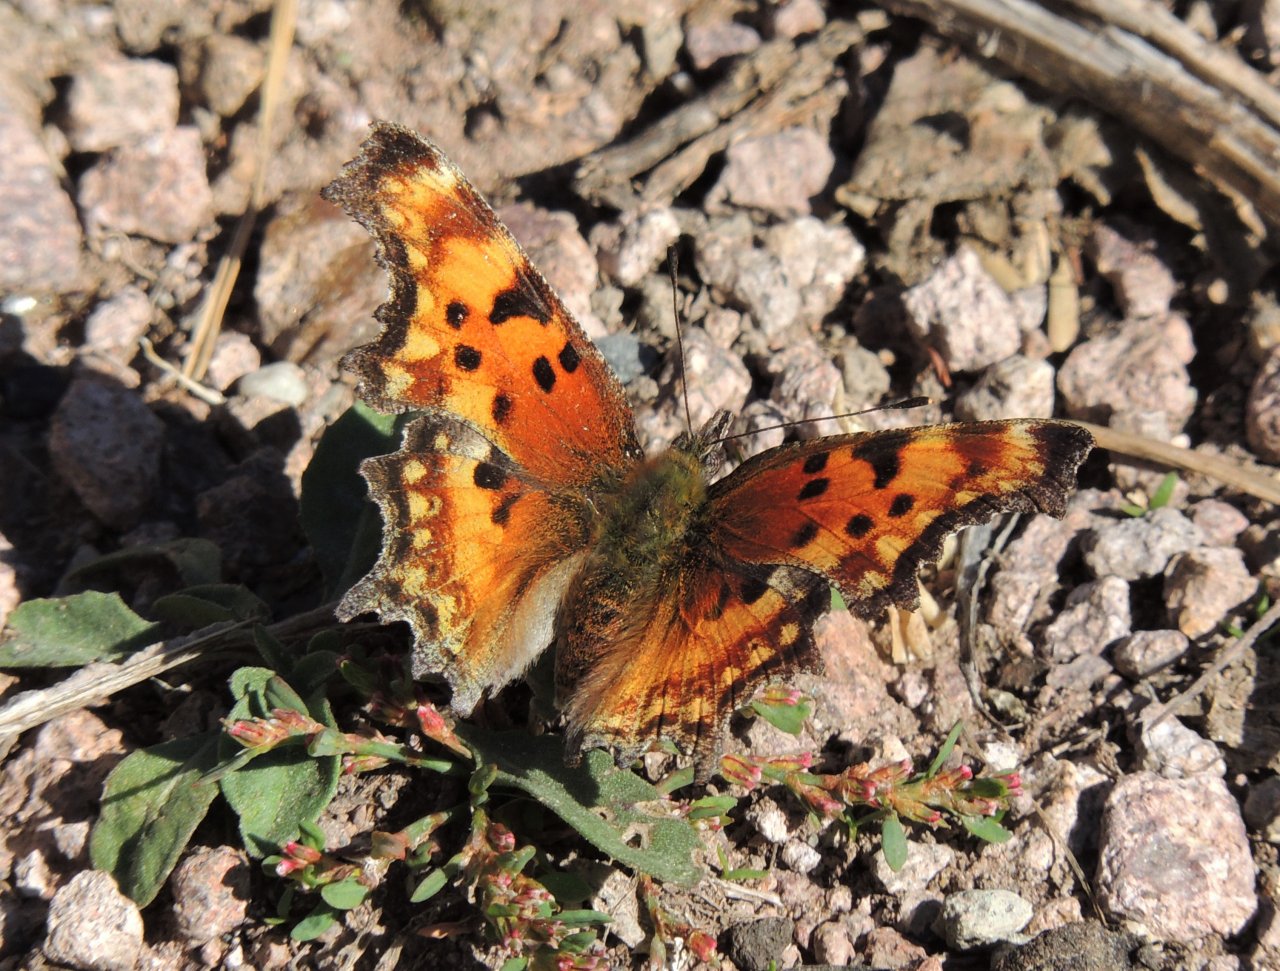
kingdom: Animalia
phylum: Arthropoda
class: Insecta
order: Lepidoptera
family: Nymphalidae
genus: Polygonia
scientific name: Polygonia gracilis
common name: Hoary Comma
